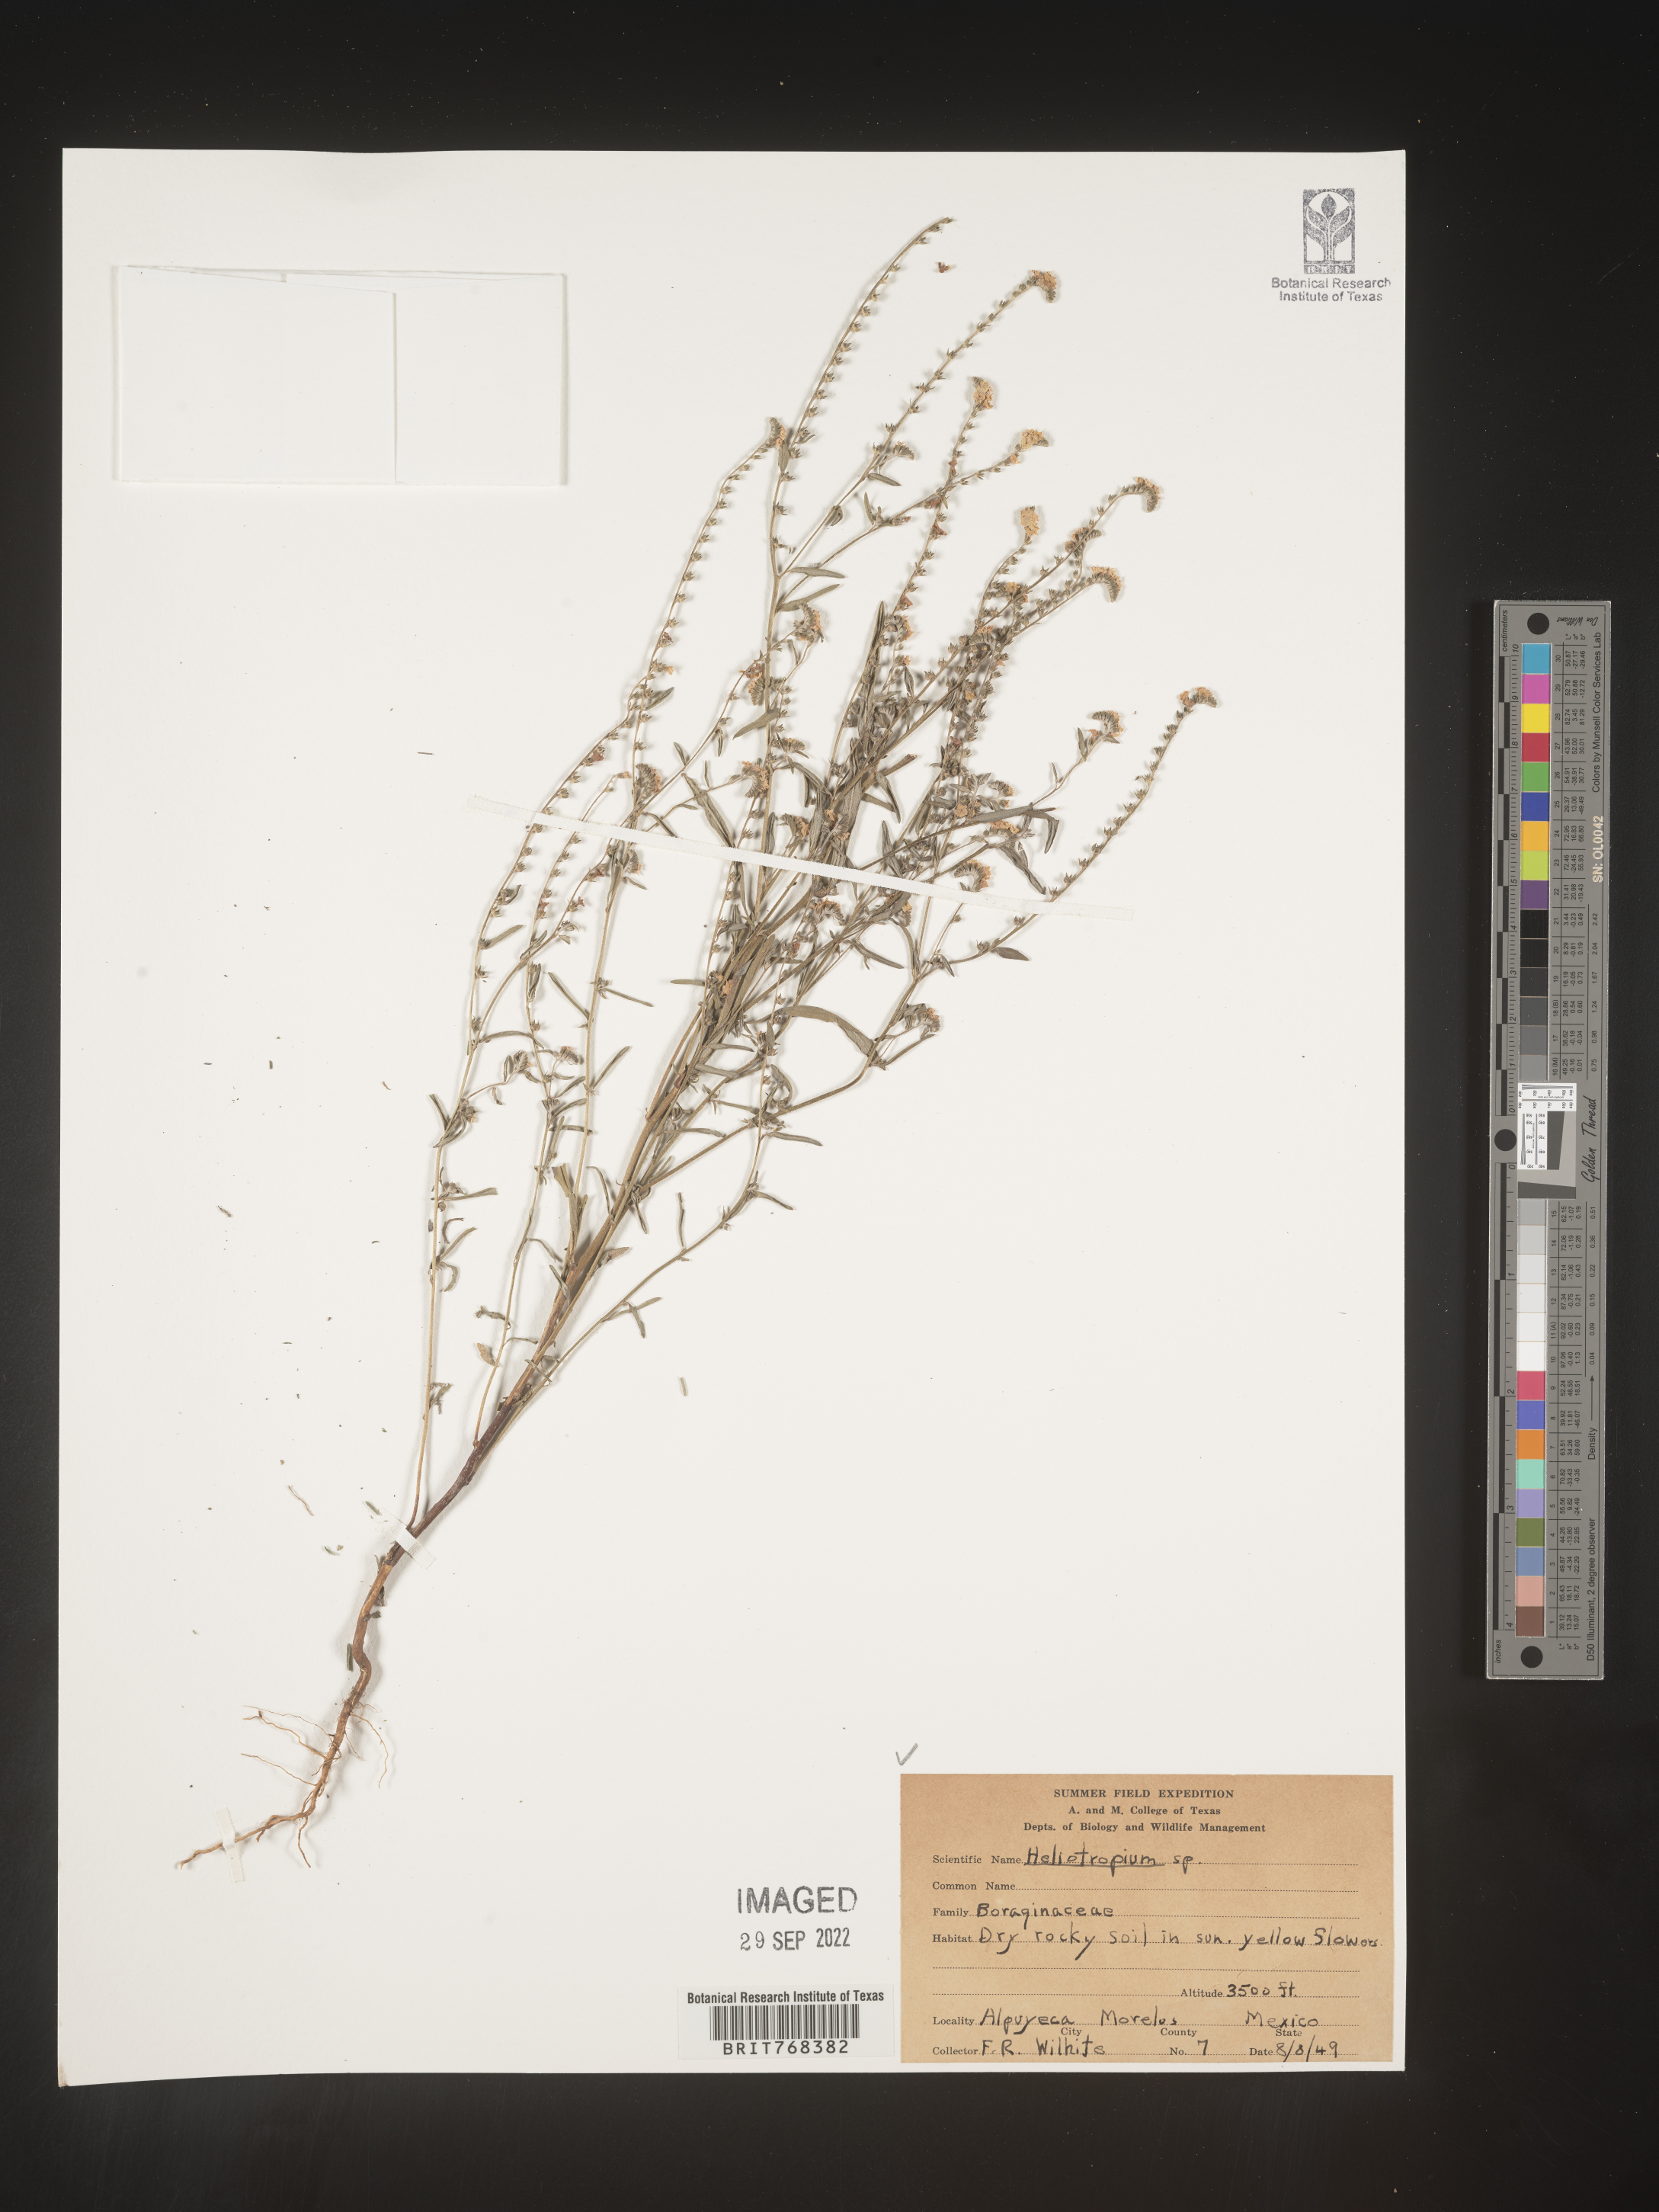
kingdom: Plantae
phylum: Tracheophyta
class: Magnoliopsida
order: Boraginales
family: Heliotropiaceae
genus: Heliotropium
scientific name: Heliotropium
